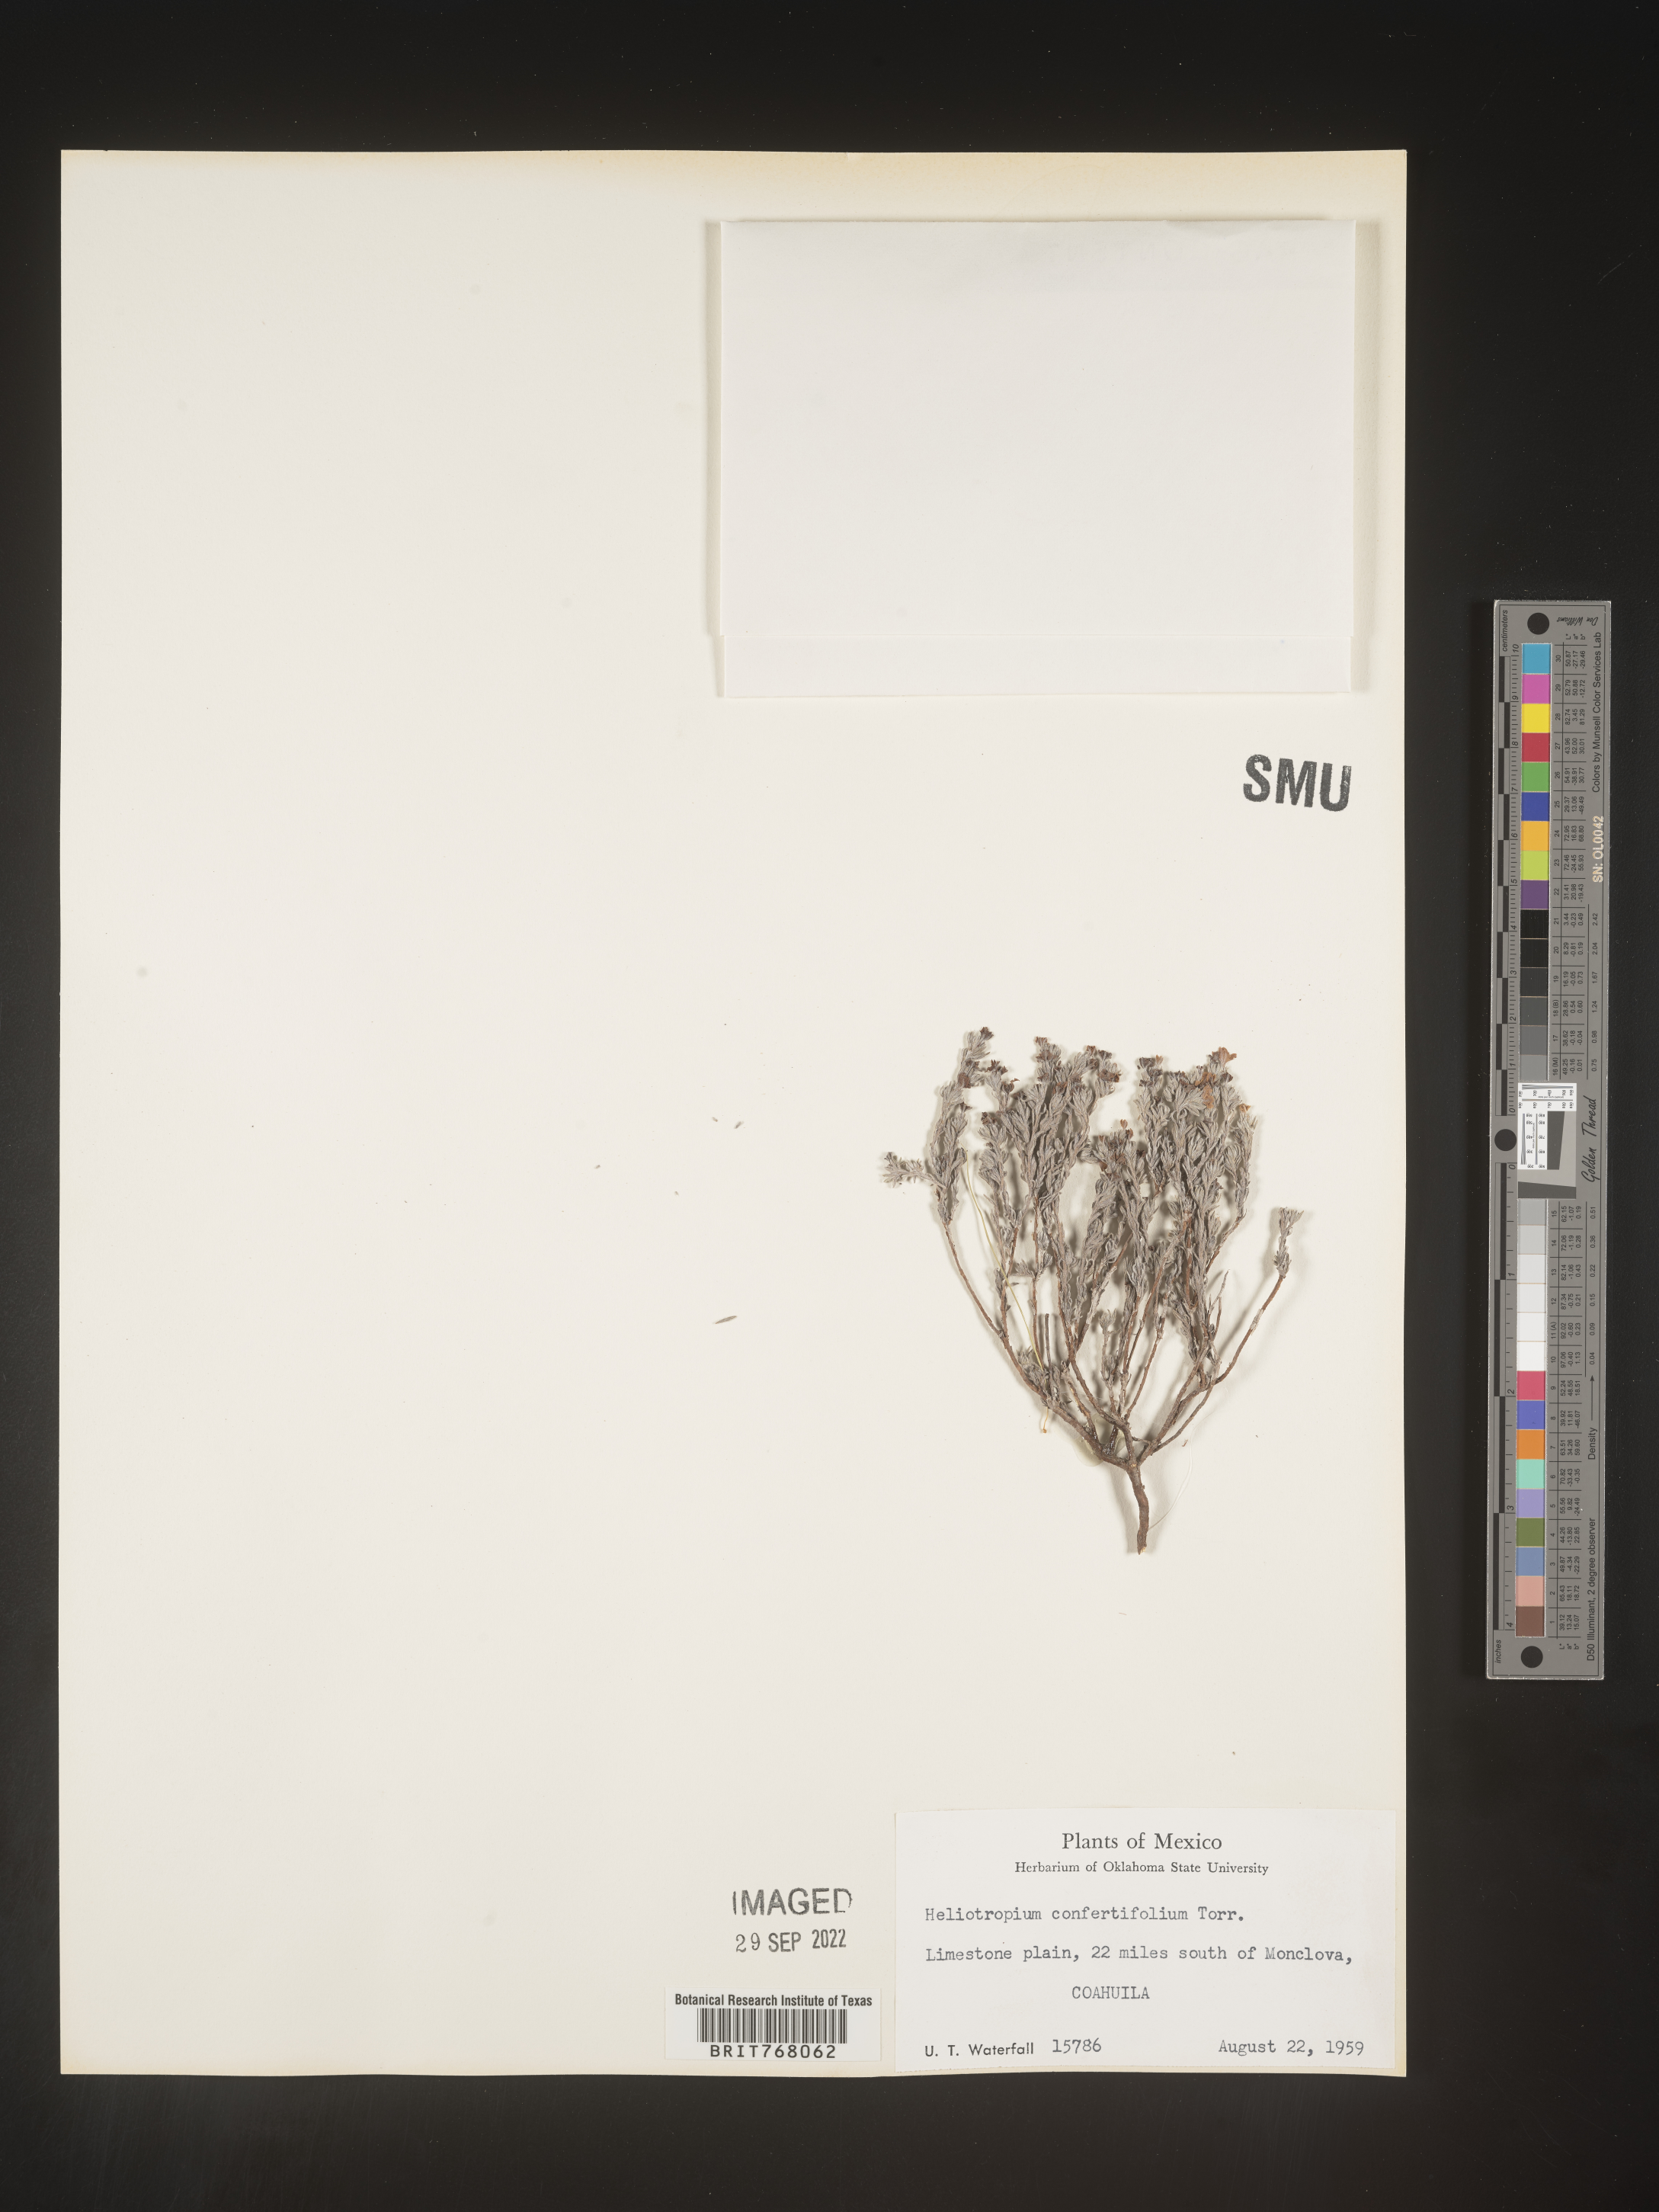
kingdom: Plantae
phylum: Tracheophyta
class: Magnoliopsida
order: Boraginales
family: Heliotropiaceae
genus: Heliotropium
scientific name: Heliotropium
